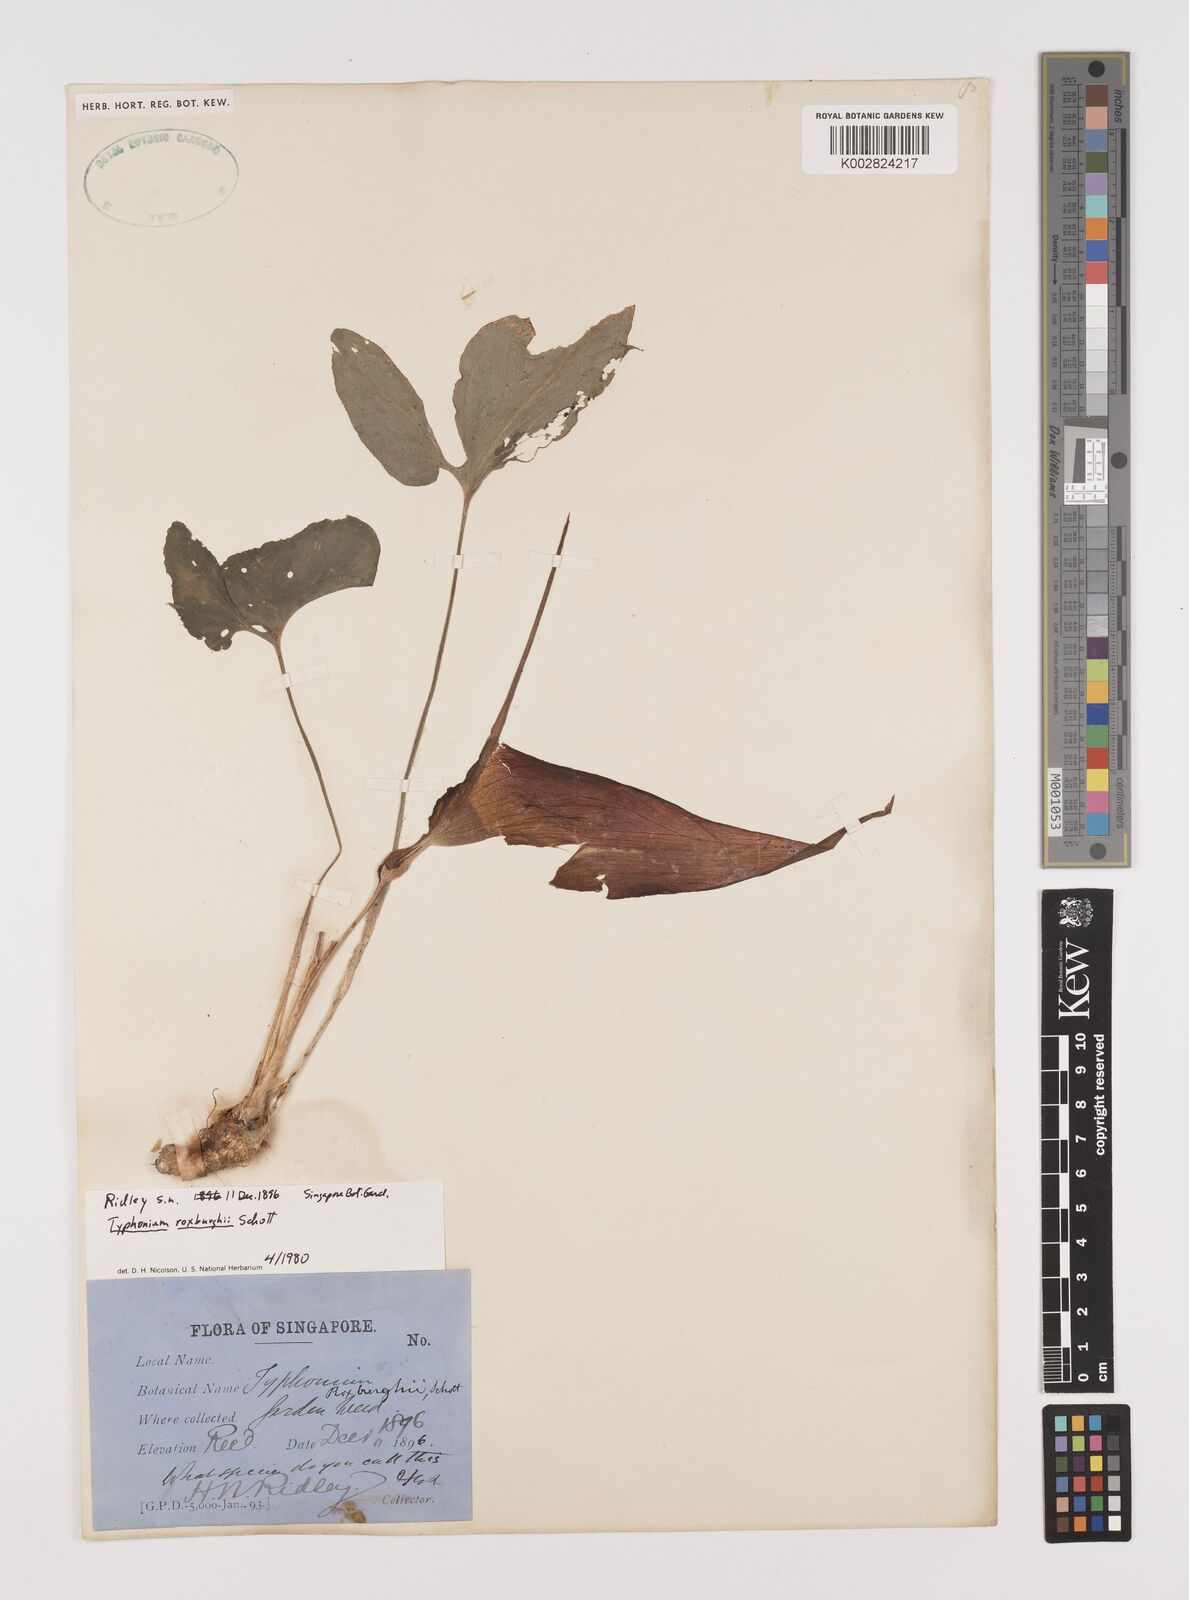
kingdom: Plantae
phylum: Tracheophyta
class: Liliopsida
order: Alismatales
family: Araceae
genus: Typhonium
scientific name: Typhonium roxburghii
